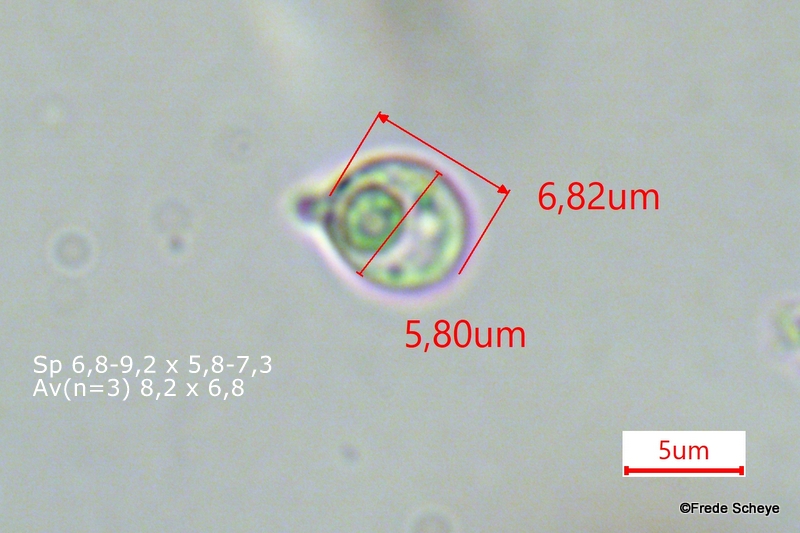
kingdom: Fungi
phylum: Basidiomycota
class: Tremellomycetes
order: Tremellales
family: Tremellaceae
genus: Phaeotremella
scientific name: Phaeotremella frondosa
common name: kæmpe-bævresvamp
